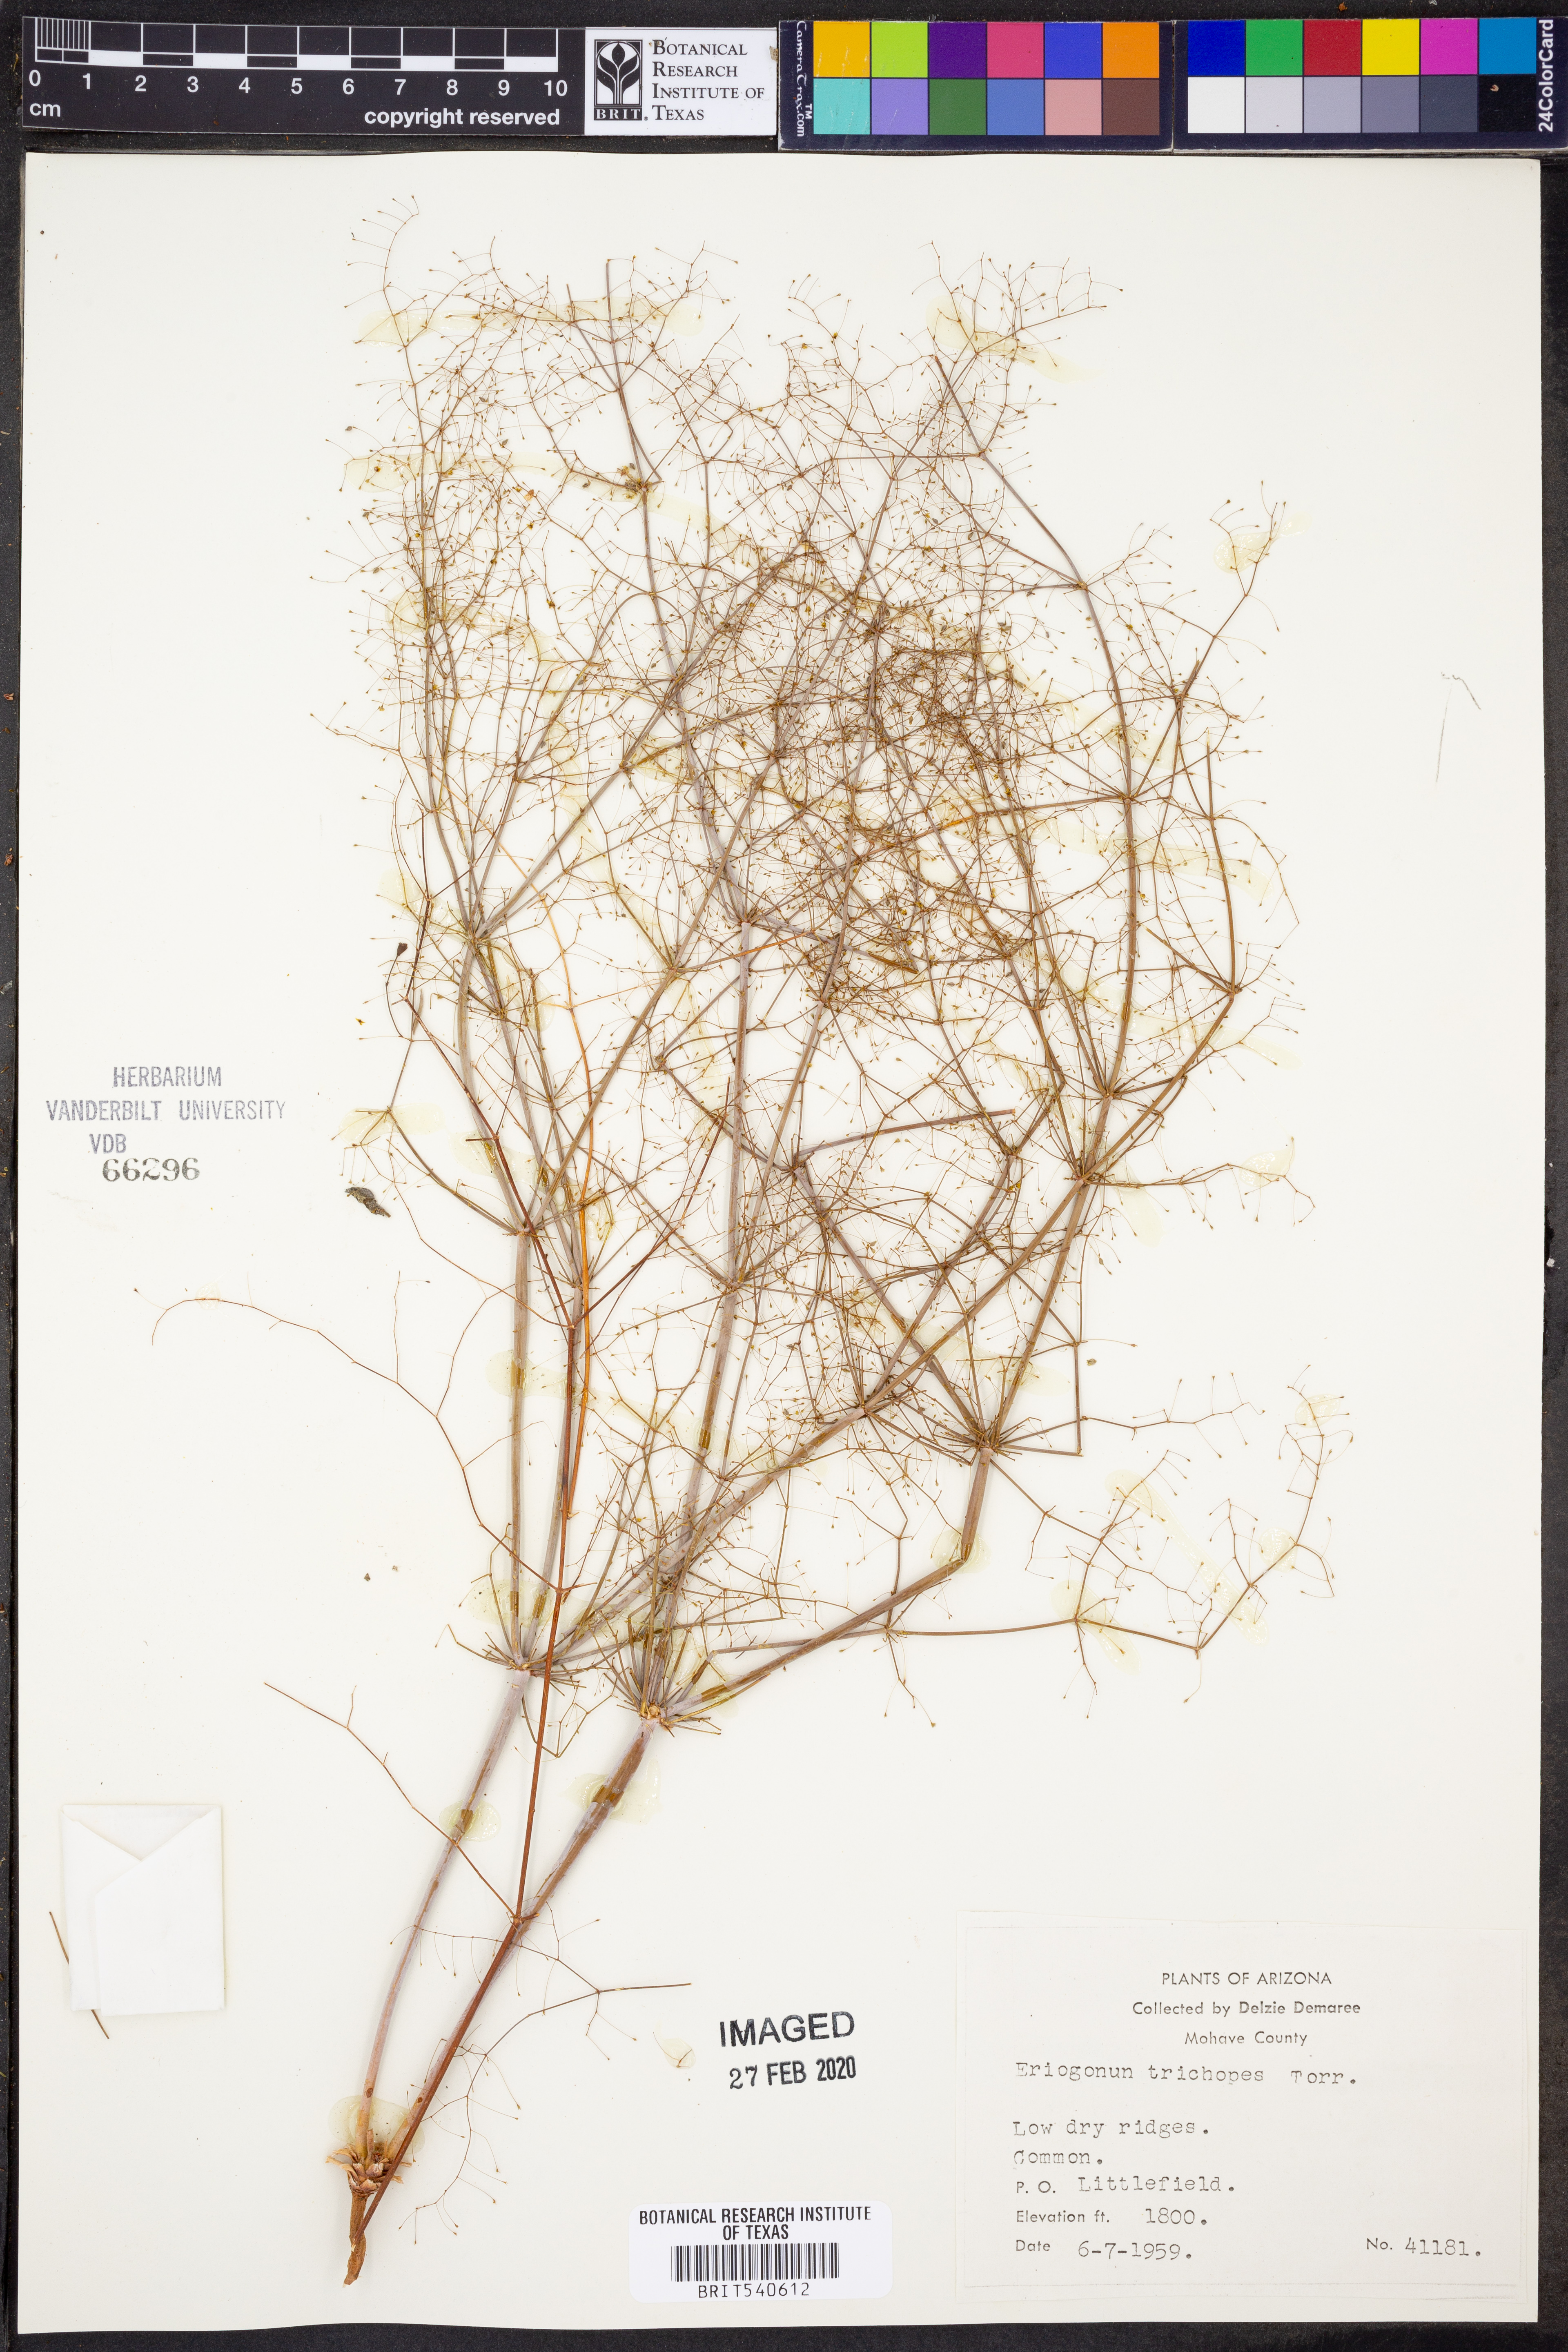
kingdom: Plantae
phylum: Tracheophyta
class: Magnoliopsida
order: Caryophyllales
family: Polygonaceae
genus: Eriogonum
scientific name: Eriogonum trichopes
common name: Little desert trumpet
